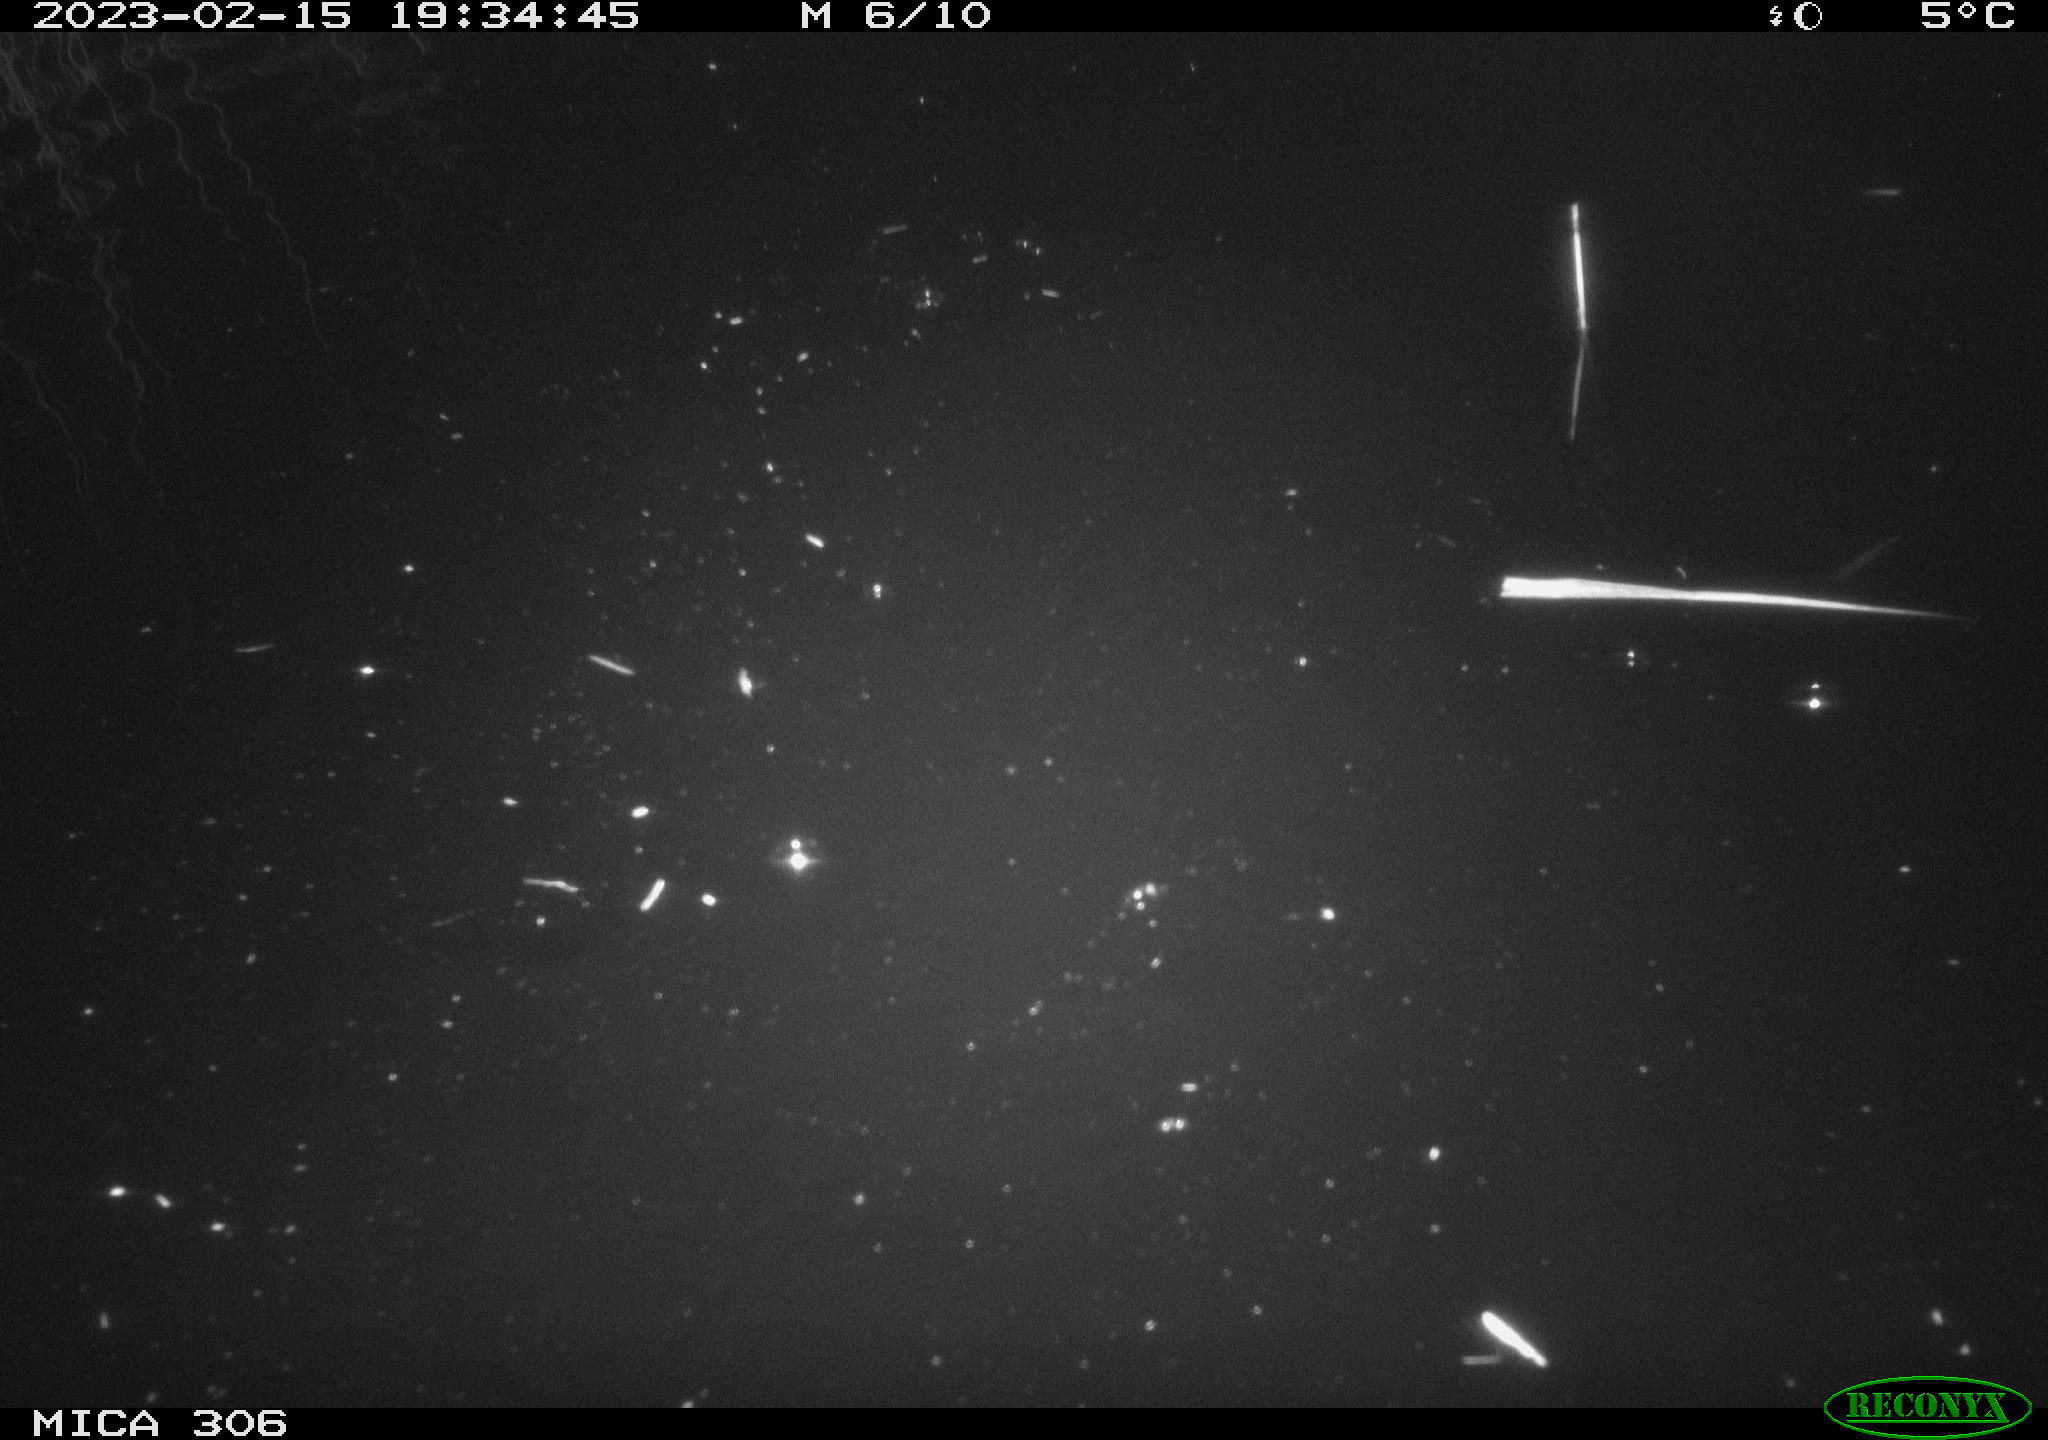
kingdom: Animalia
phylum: Chordata
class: Mammalia
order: Rodentia
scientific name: Rodentia
